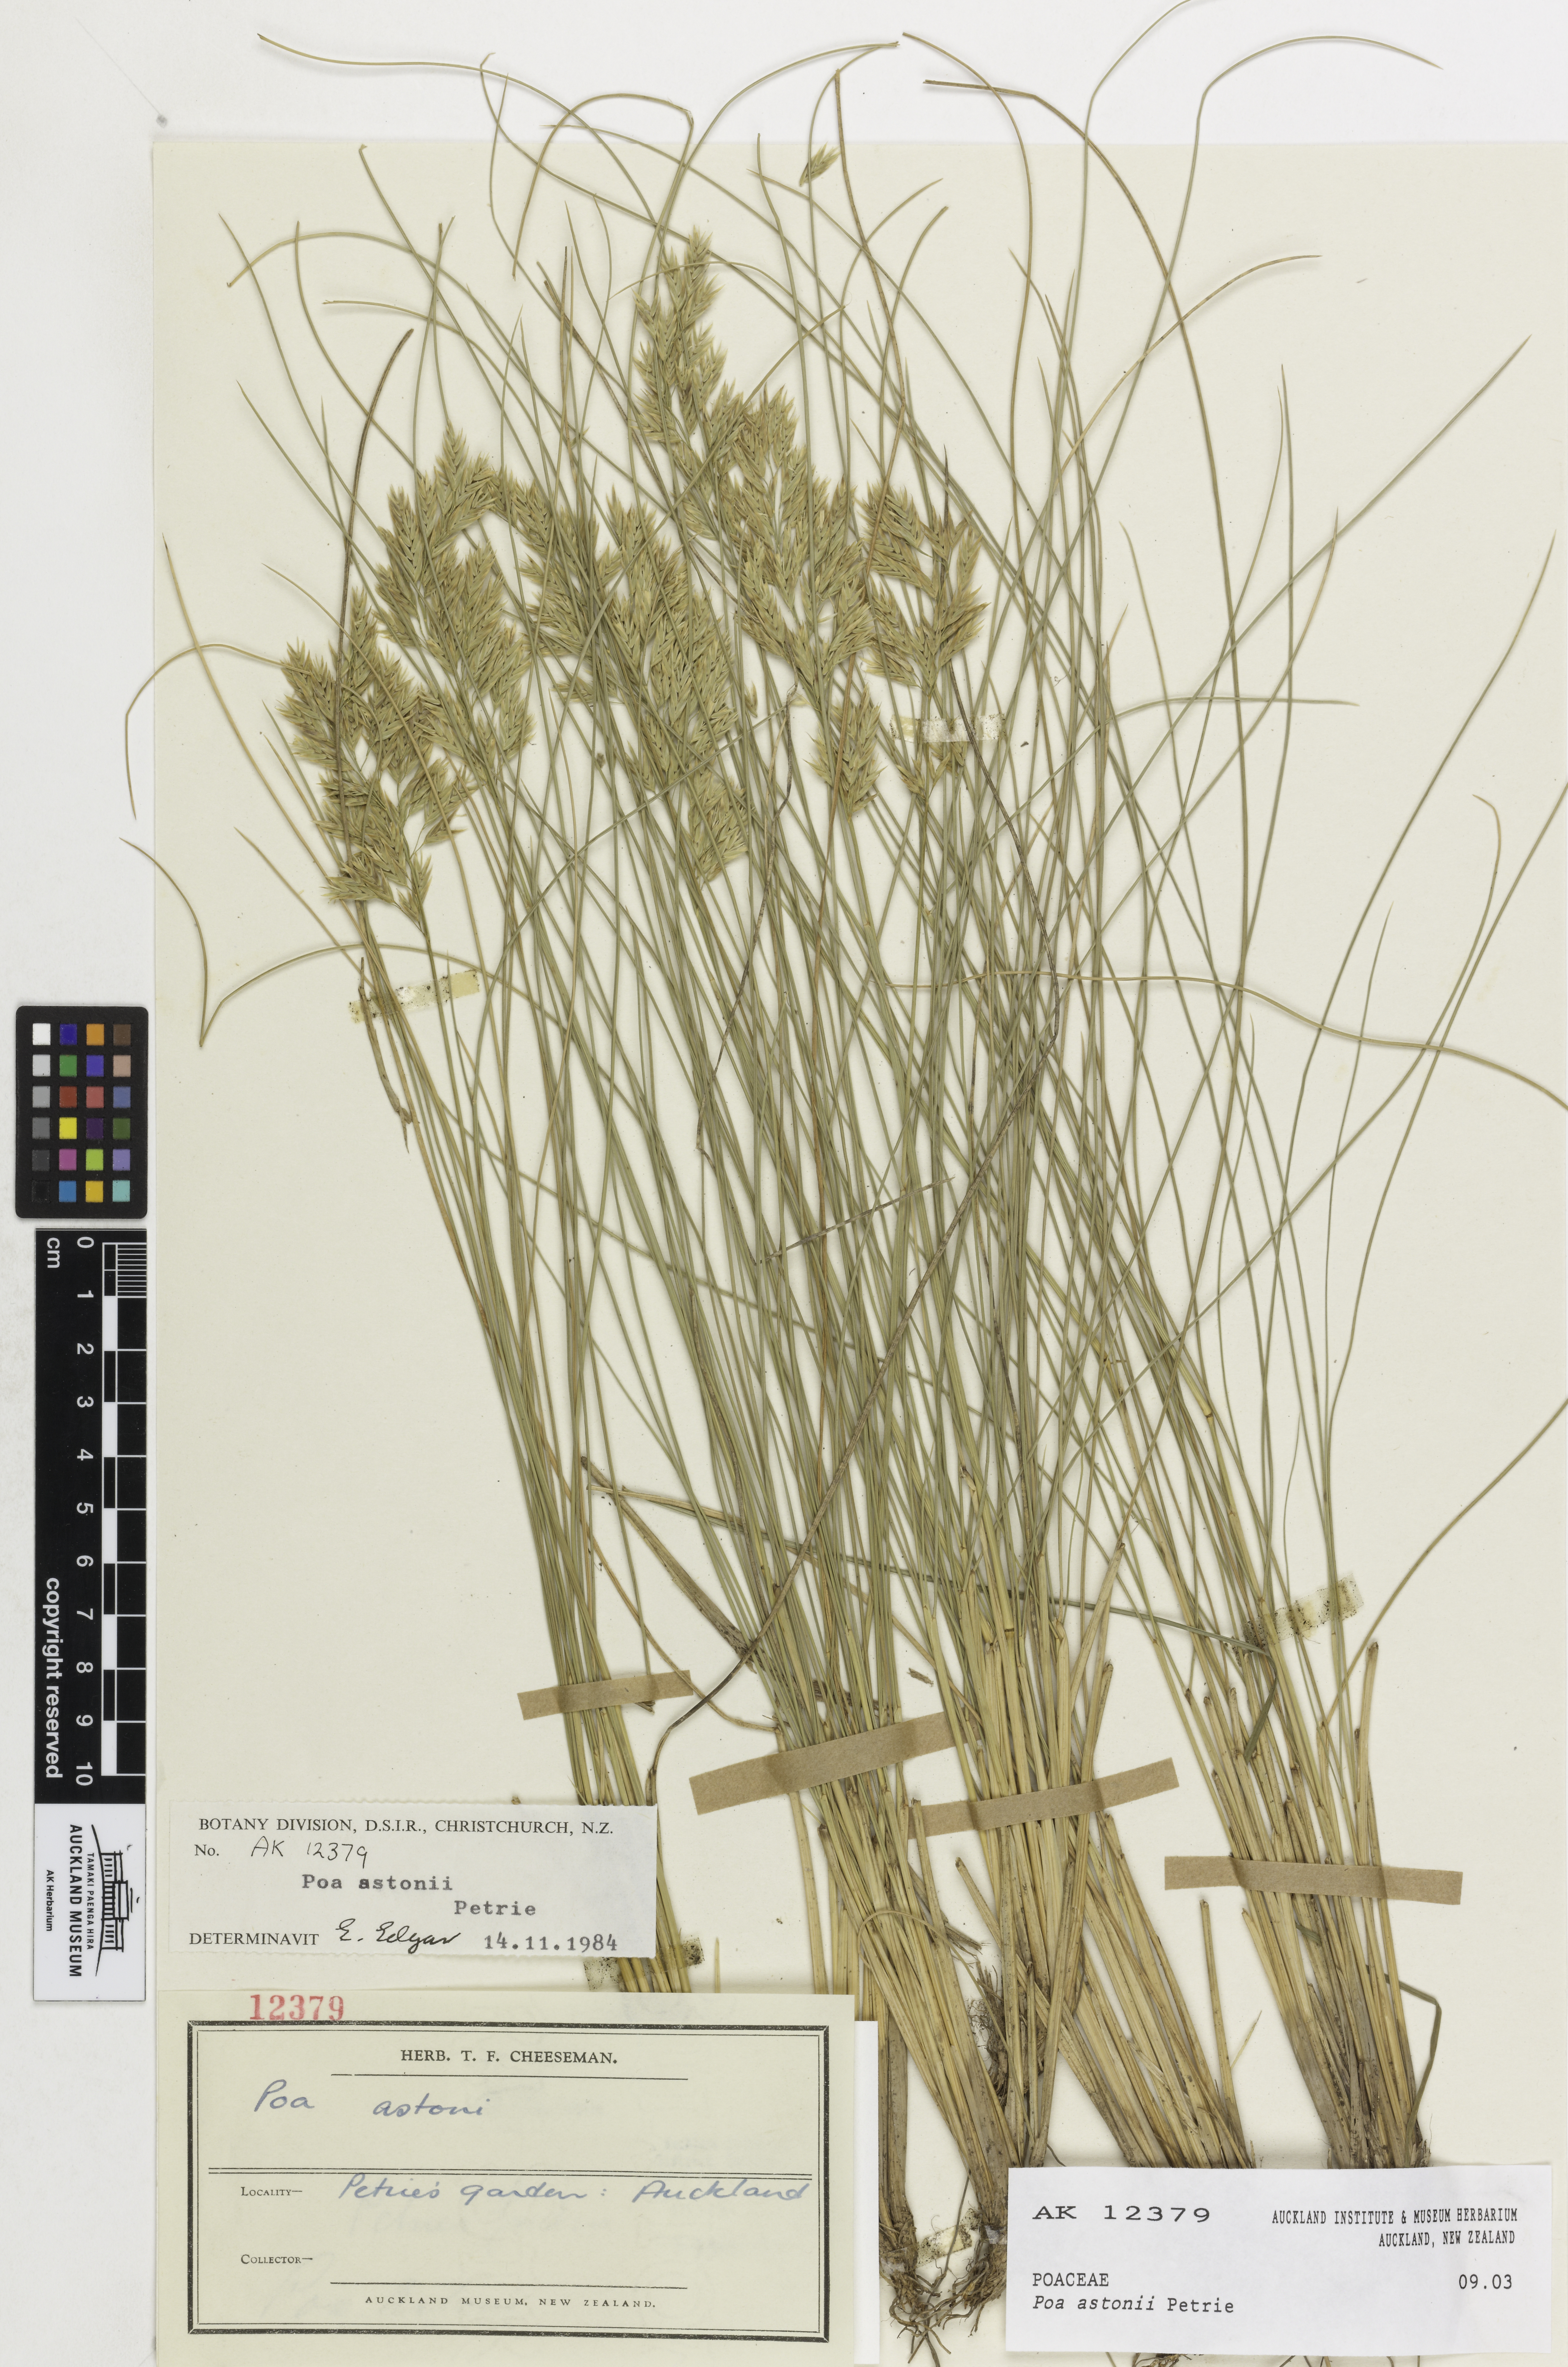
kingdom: Plantae
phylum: Tracheophyta
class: Liliopsida
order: Poales
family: Poaceae
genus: Poa
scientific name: Poa astonii
